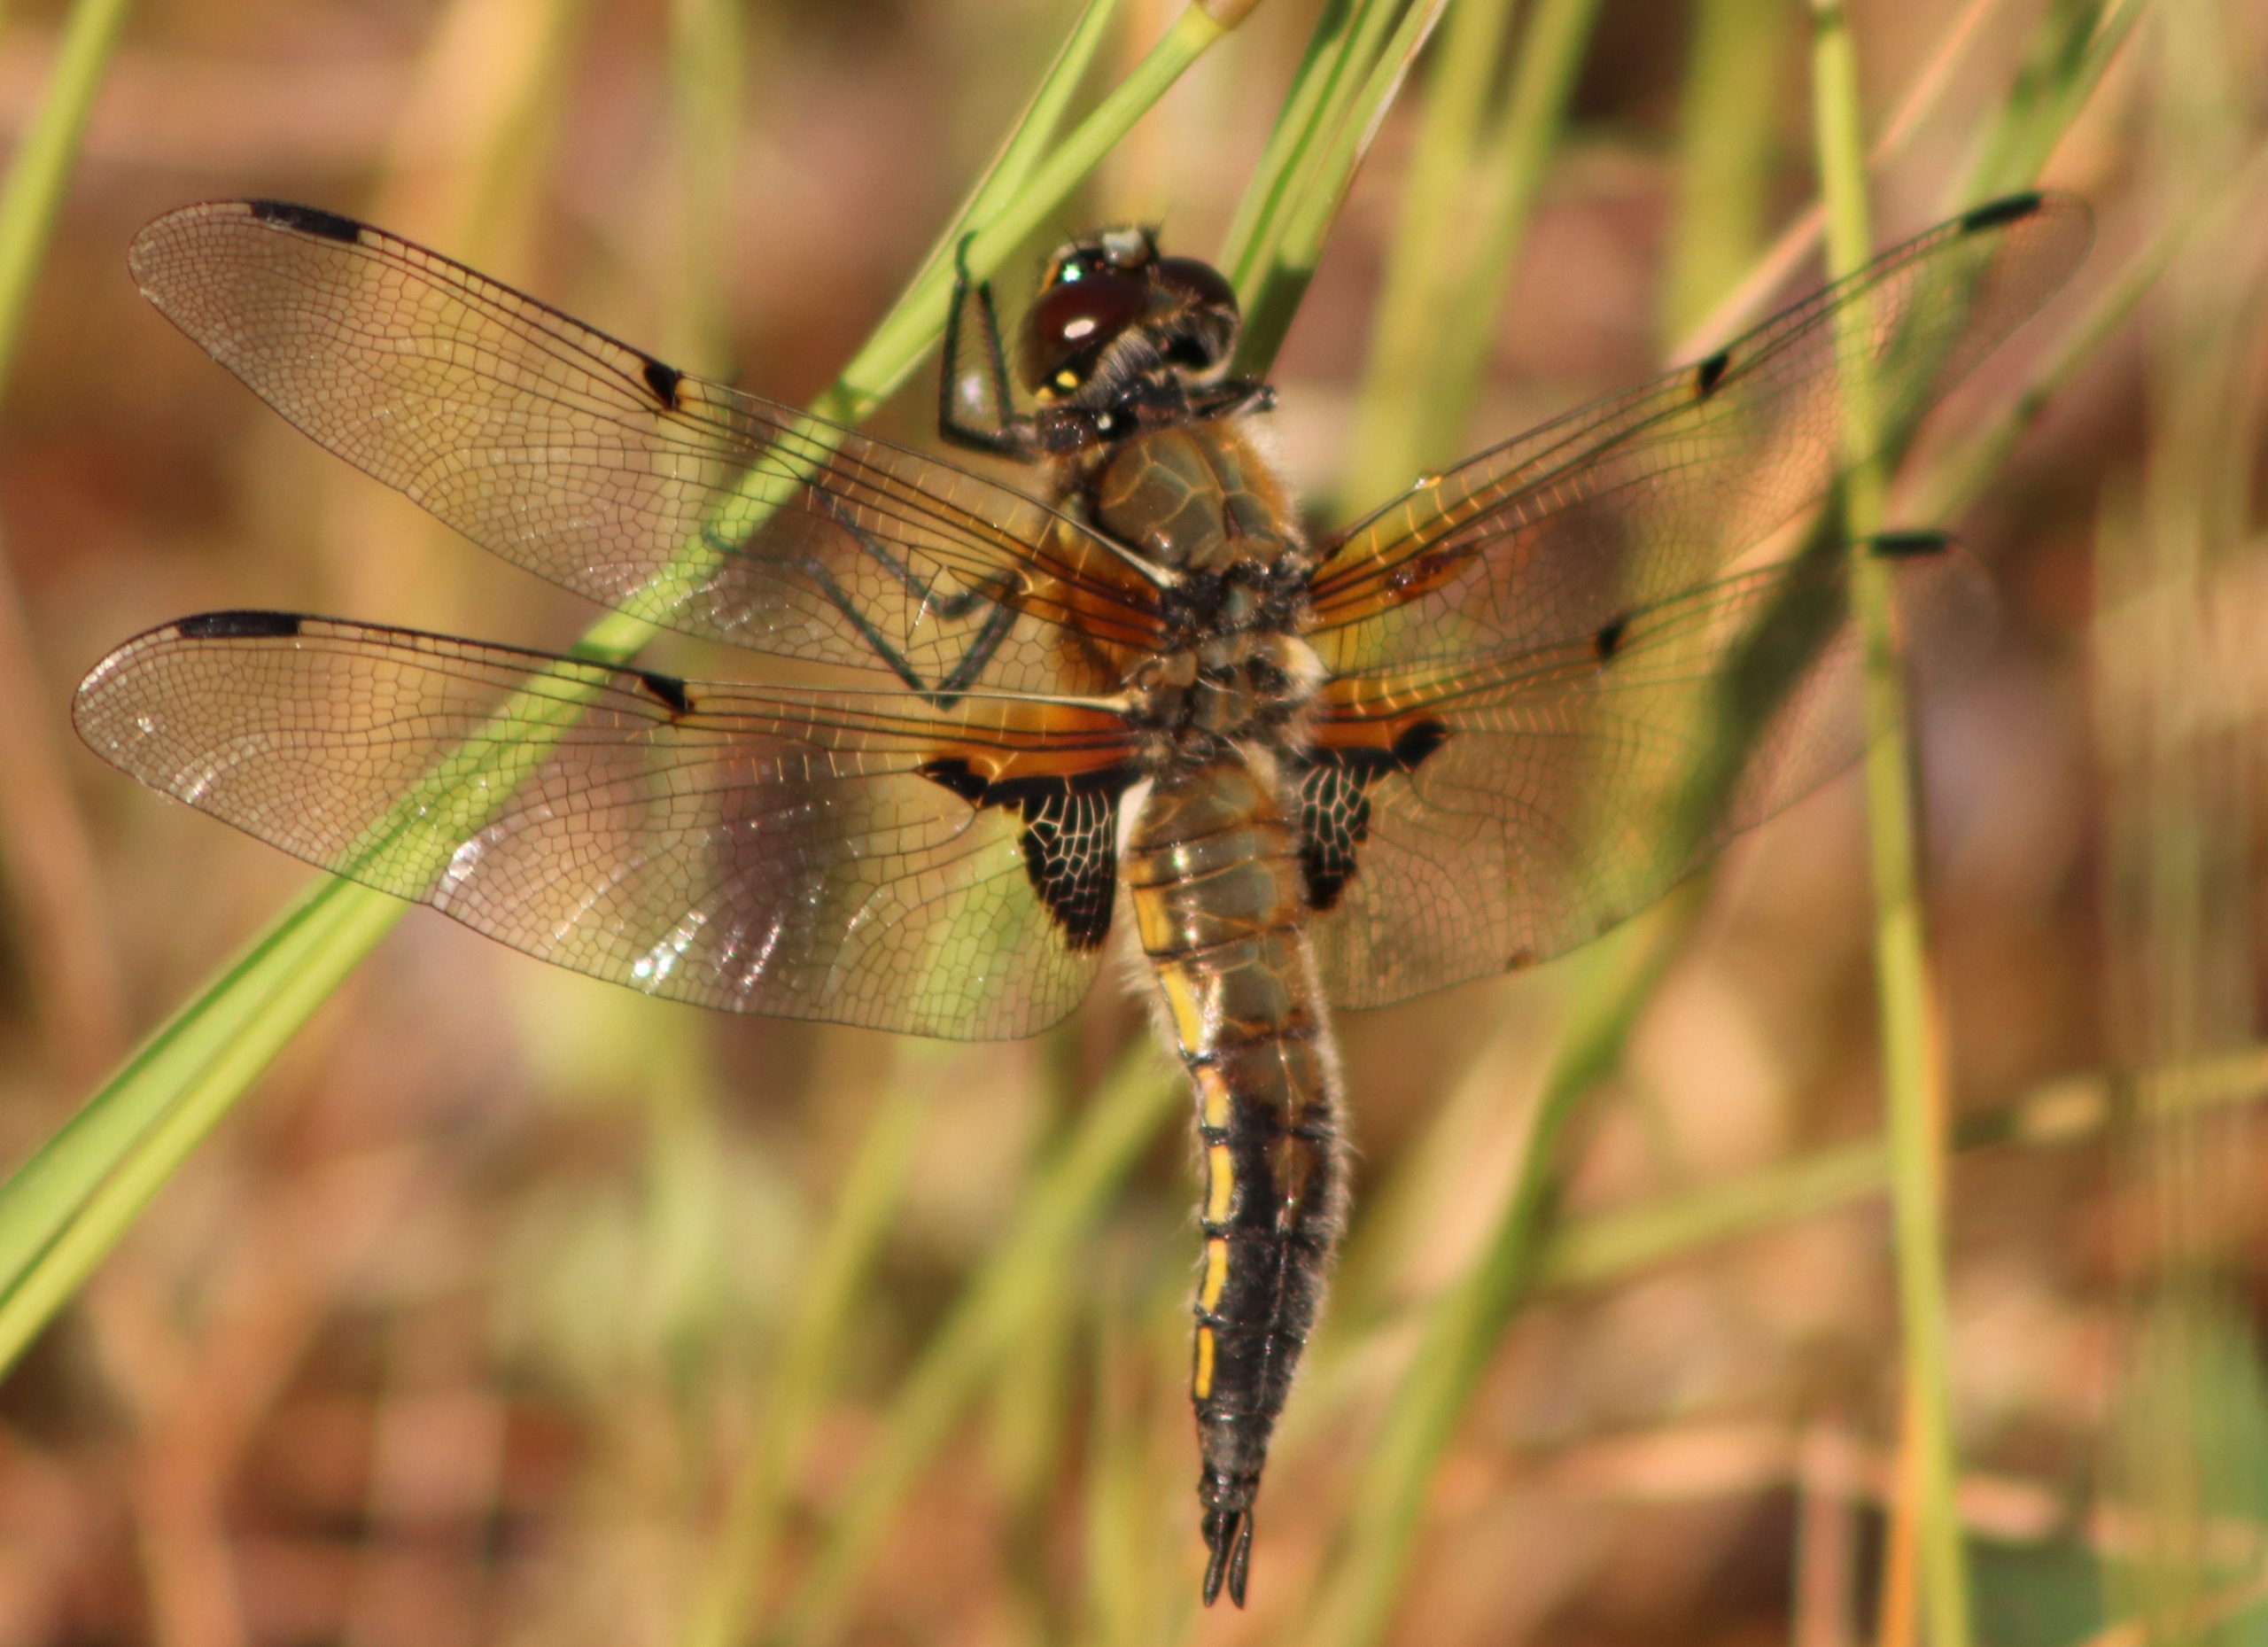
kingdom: Animalia
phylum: Arthropoda
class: Insecta
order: Odonata
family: Libellulidae
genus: Libellula
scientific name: Libellula quadrimaculata
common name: Fireplettet libel
